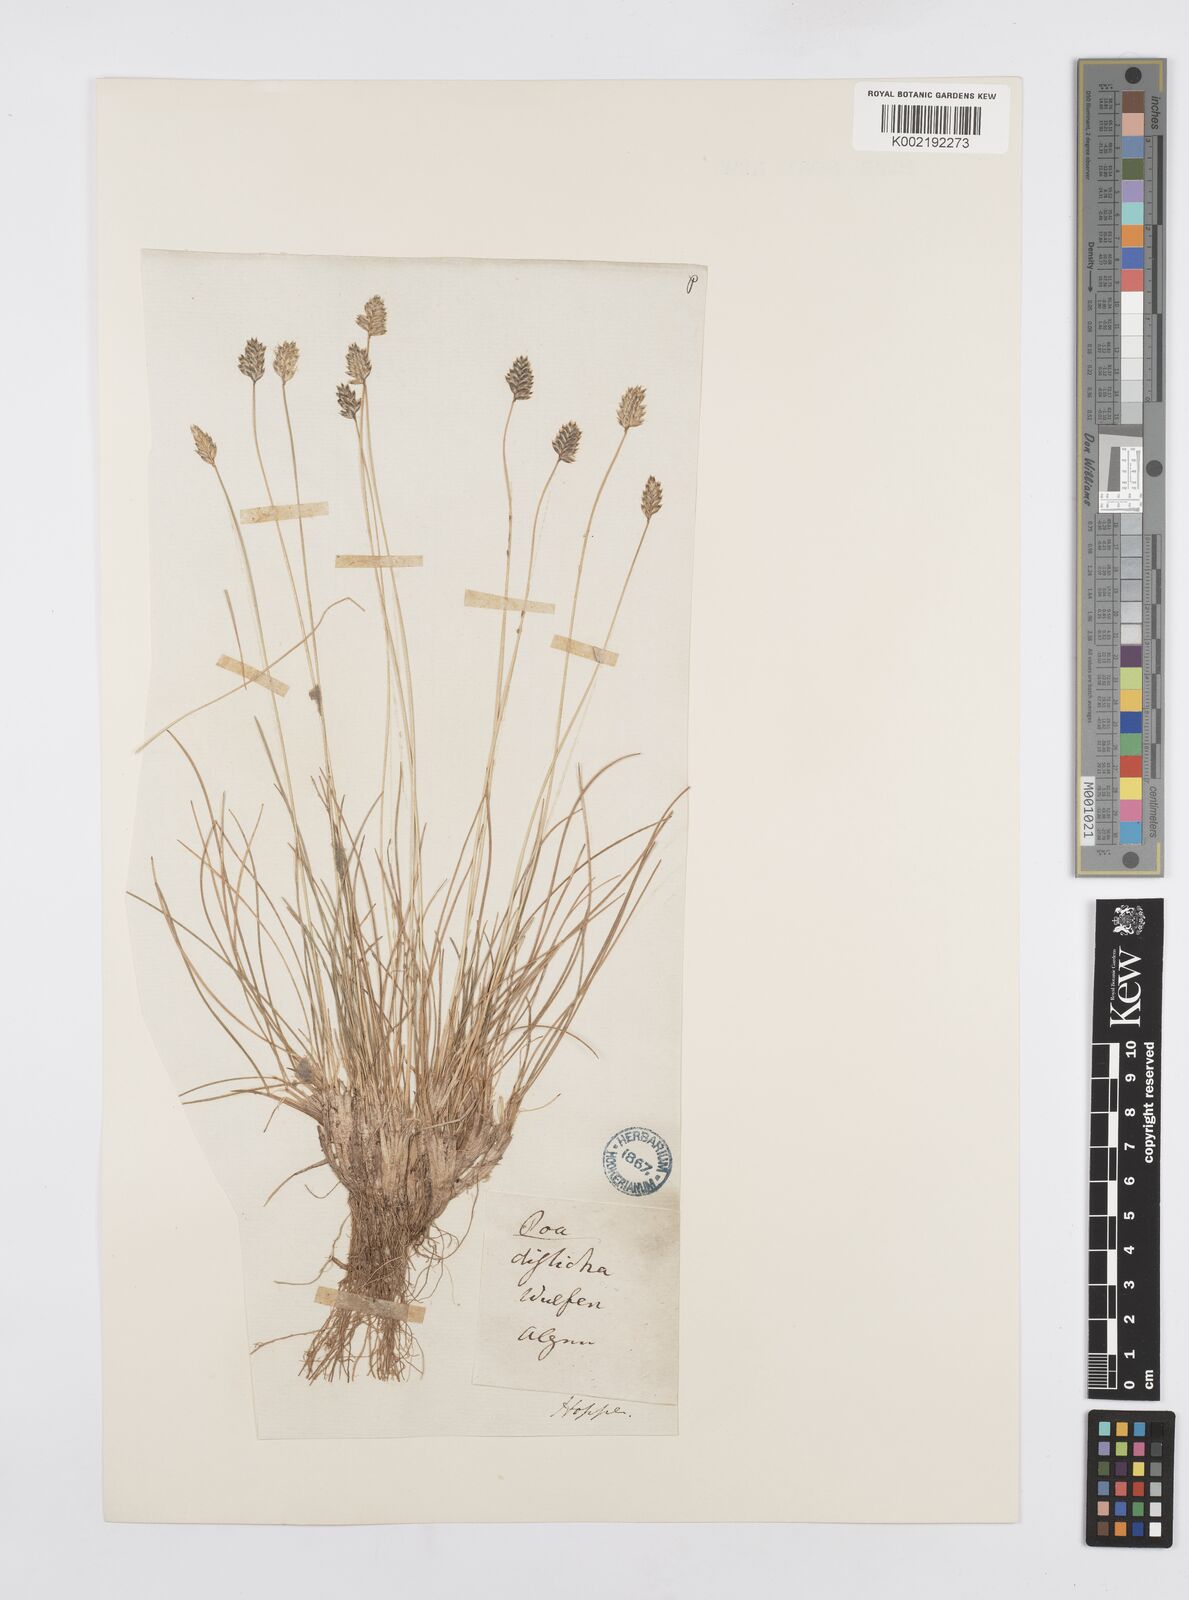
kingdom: Plantae
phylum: Tracheophyta
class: Liliopsida
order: Poales
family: Poaceae
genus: Oreochloa
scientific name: Oreochloa disticha
